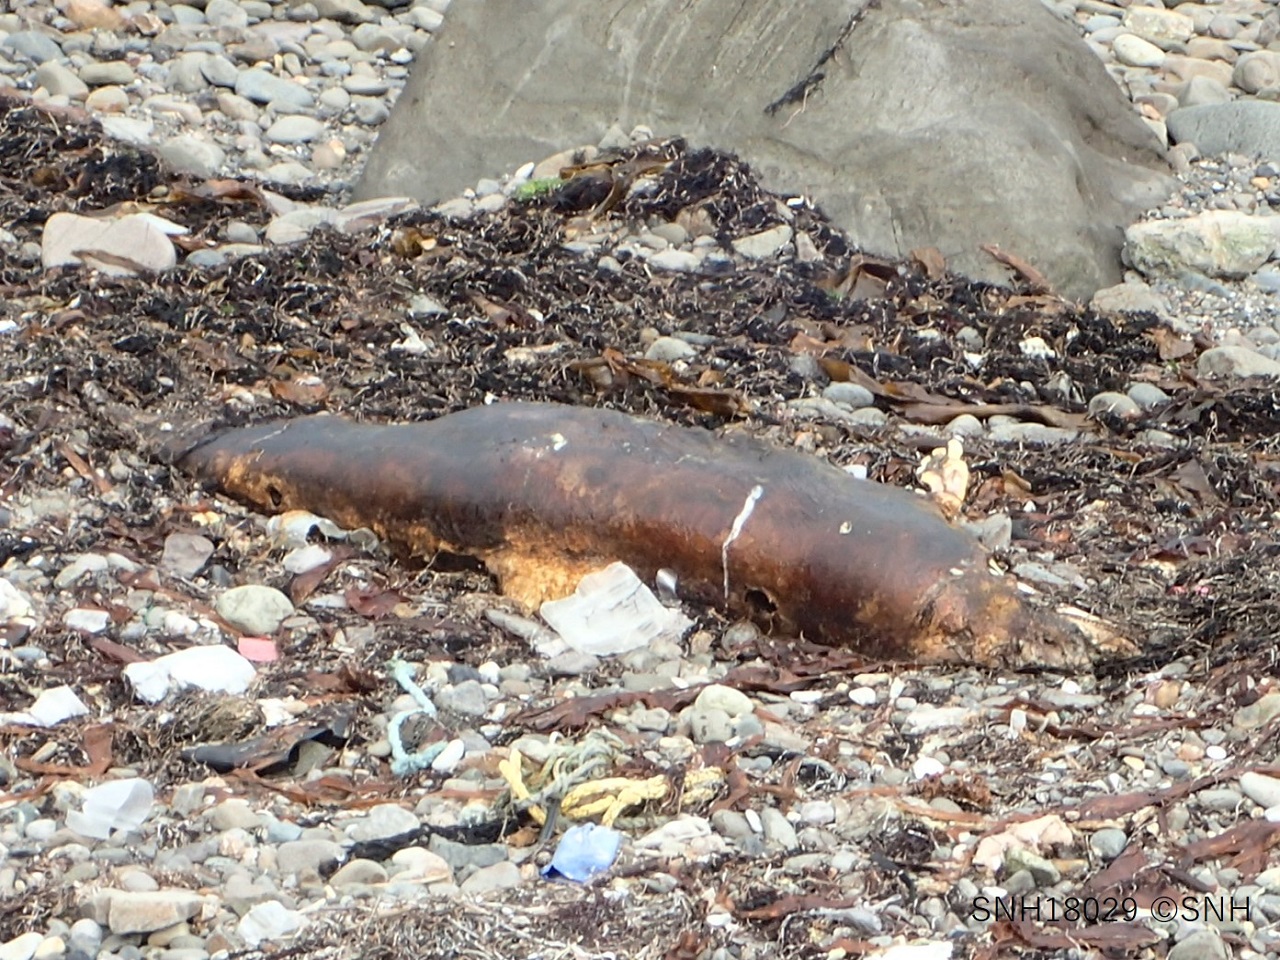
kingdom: Animalia
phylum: Chordata
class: Mammalia
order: Cetacea
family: Delphinidae
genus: Lagenorhynchus
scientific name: Lagenorhynchus obliquidens
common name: Pacific white-sided dolphin
